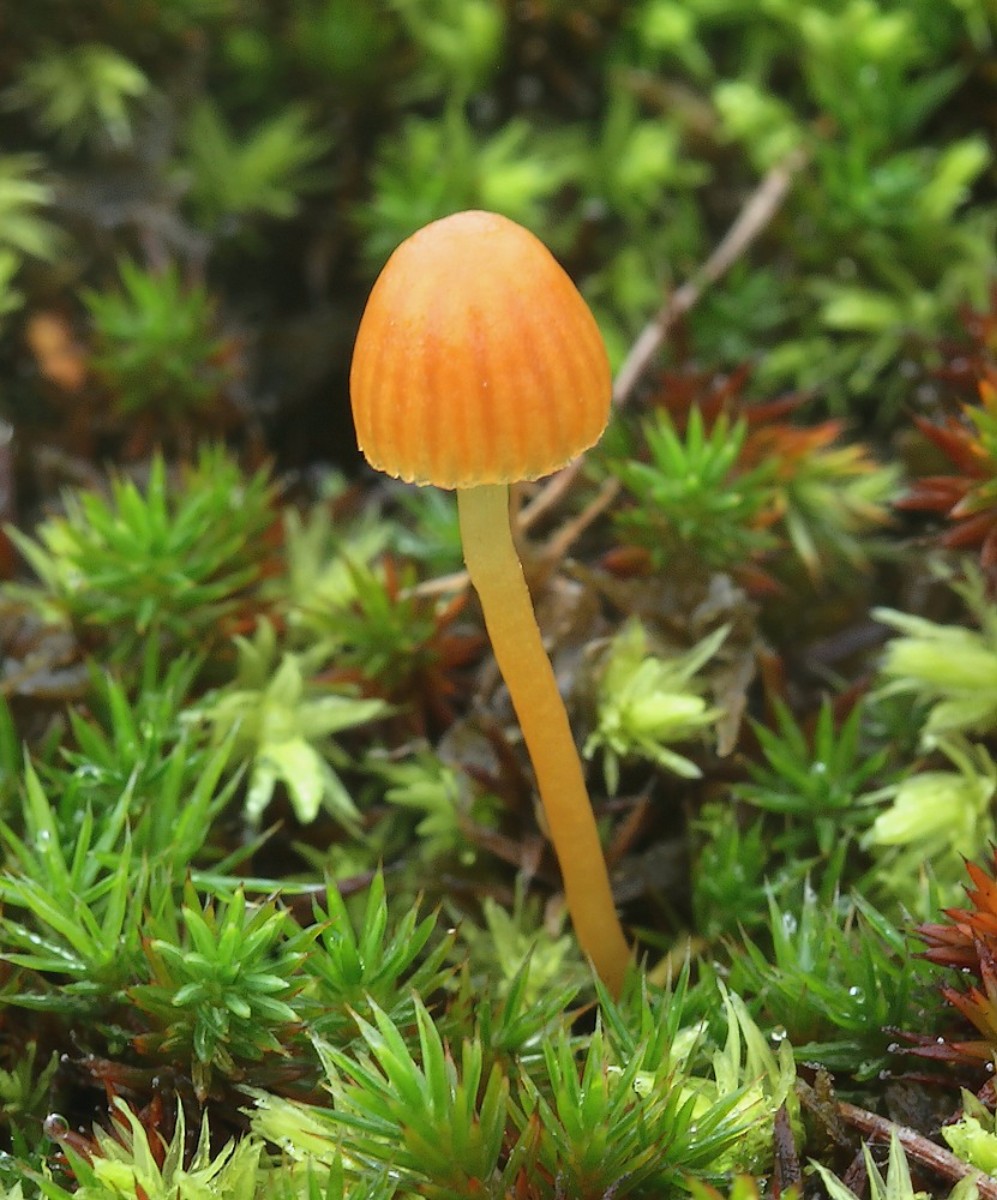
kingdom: Fungi
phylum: Basidiomycota
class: Agaricomycetes
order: Agaricales
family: Hymenogastraceae
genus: Galerina
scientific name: Galerina
